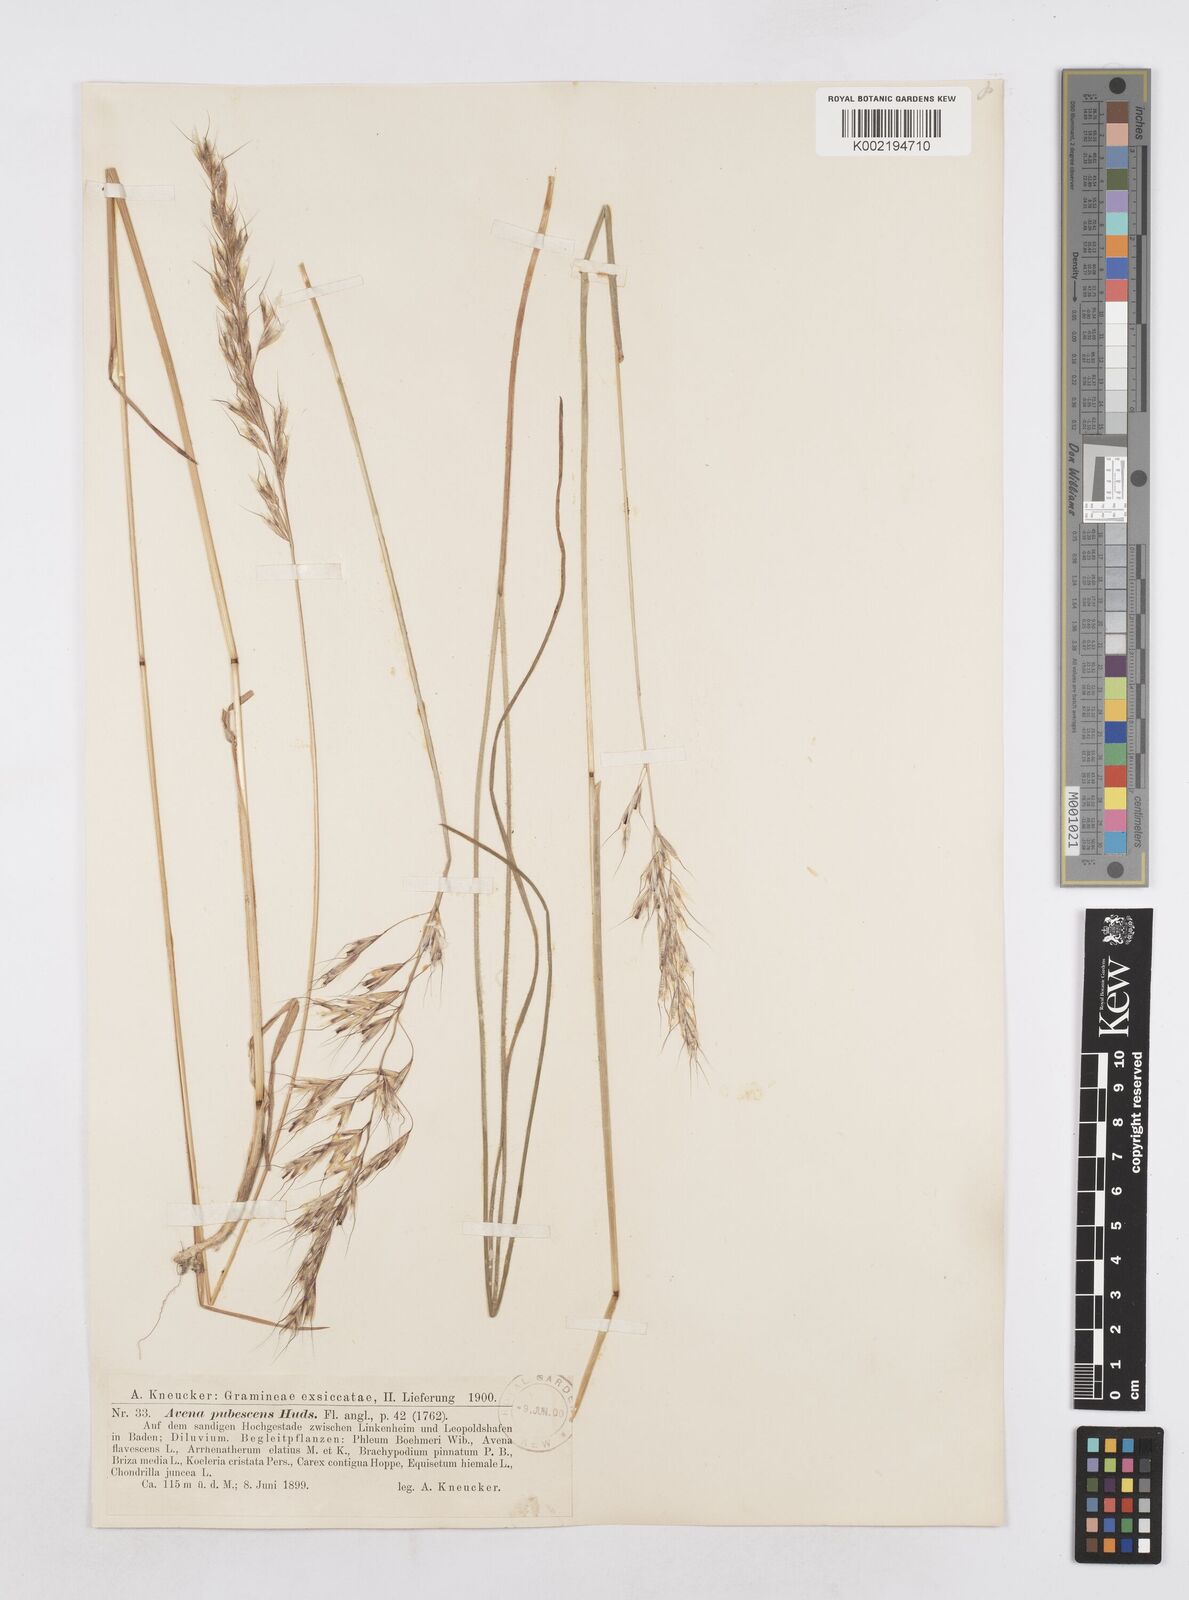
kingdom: Plantae
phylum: Tracheophyta
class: Liliopsida
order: Poales
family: Poaceae
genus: Avenula
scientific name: Avenula pubescens
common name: Downy alpine oatgrass
